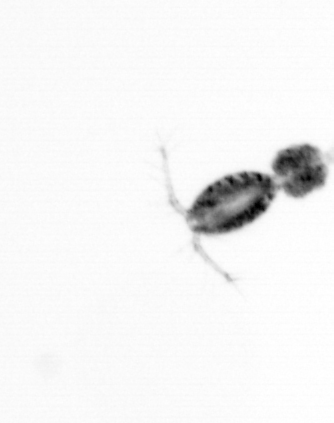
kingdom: Animalia
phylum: Arthropoda
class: Copepoda
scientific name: Copepoda
